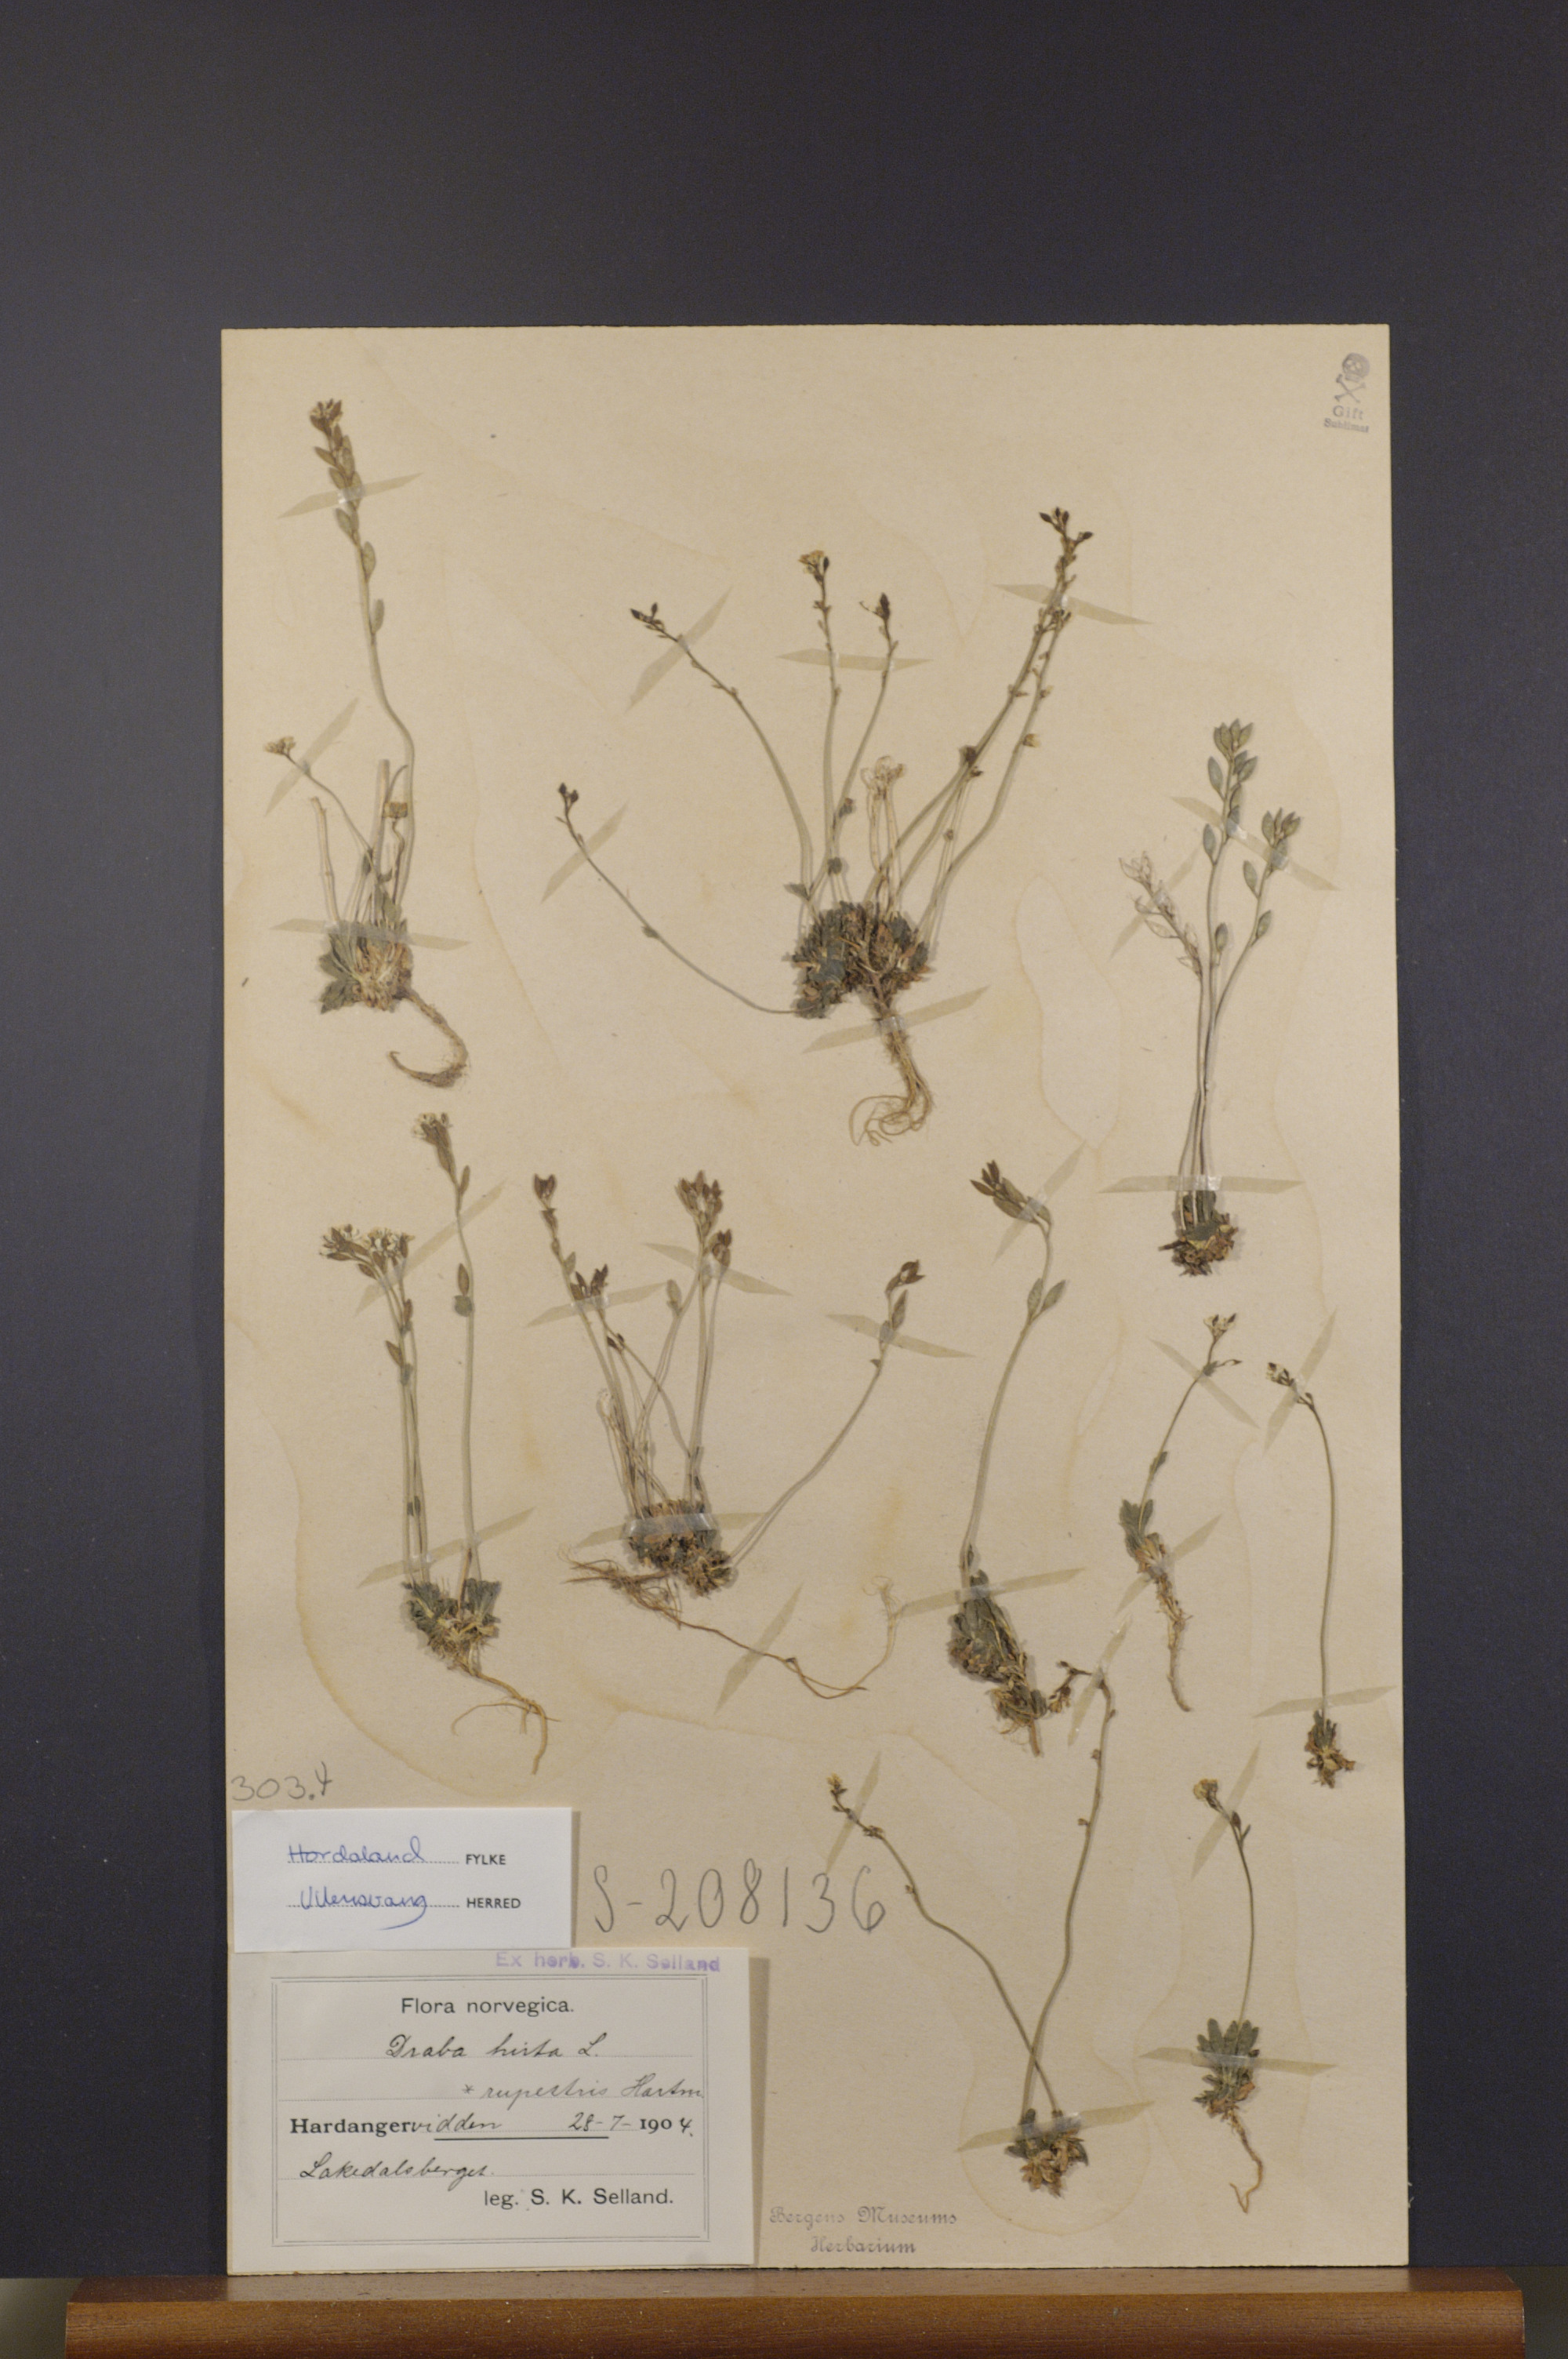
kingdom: Plantae
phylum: Tracheophyta
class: Magnoliopsida
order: Brassicales
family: Brassicaceae
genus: Draba
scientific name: Draba norvegica
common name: Rock whitlowgrass
